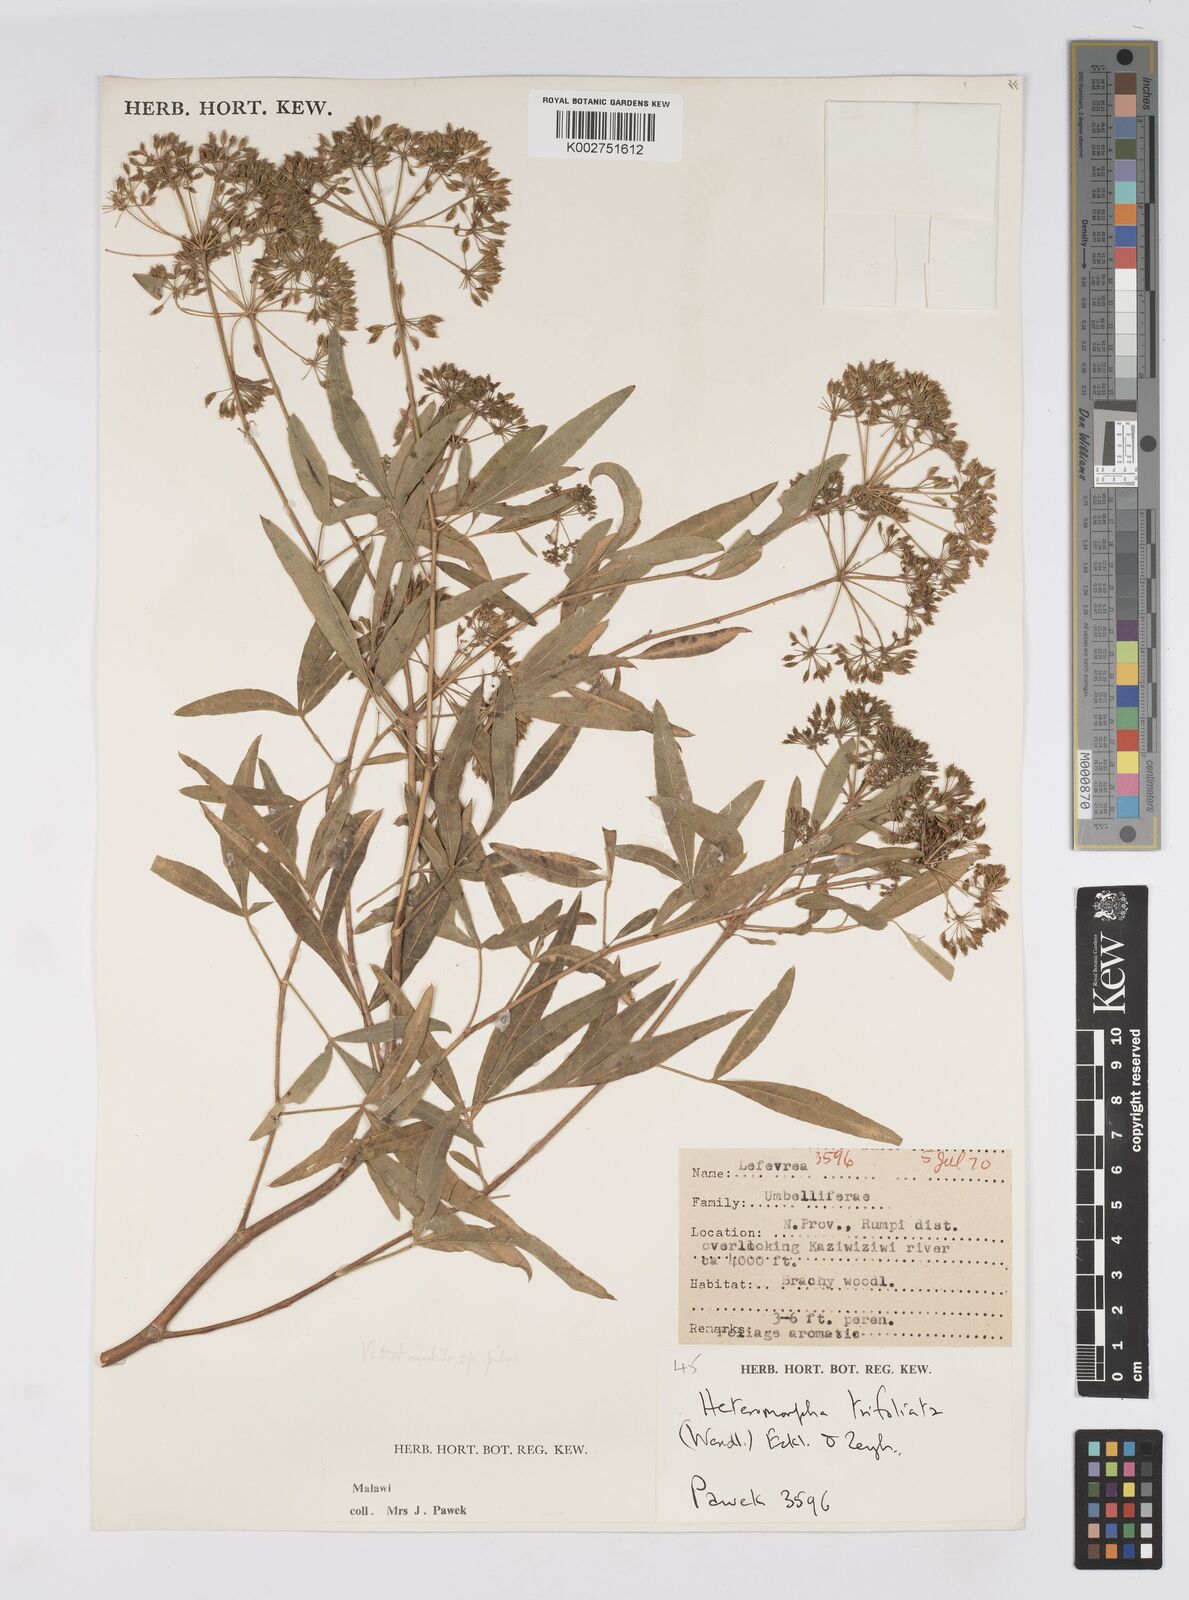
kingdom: Plantae
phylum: Tracheophyta
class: Magnoliopsida
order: Apiales
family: Apiaceae
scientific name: Apiaceae
